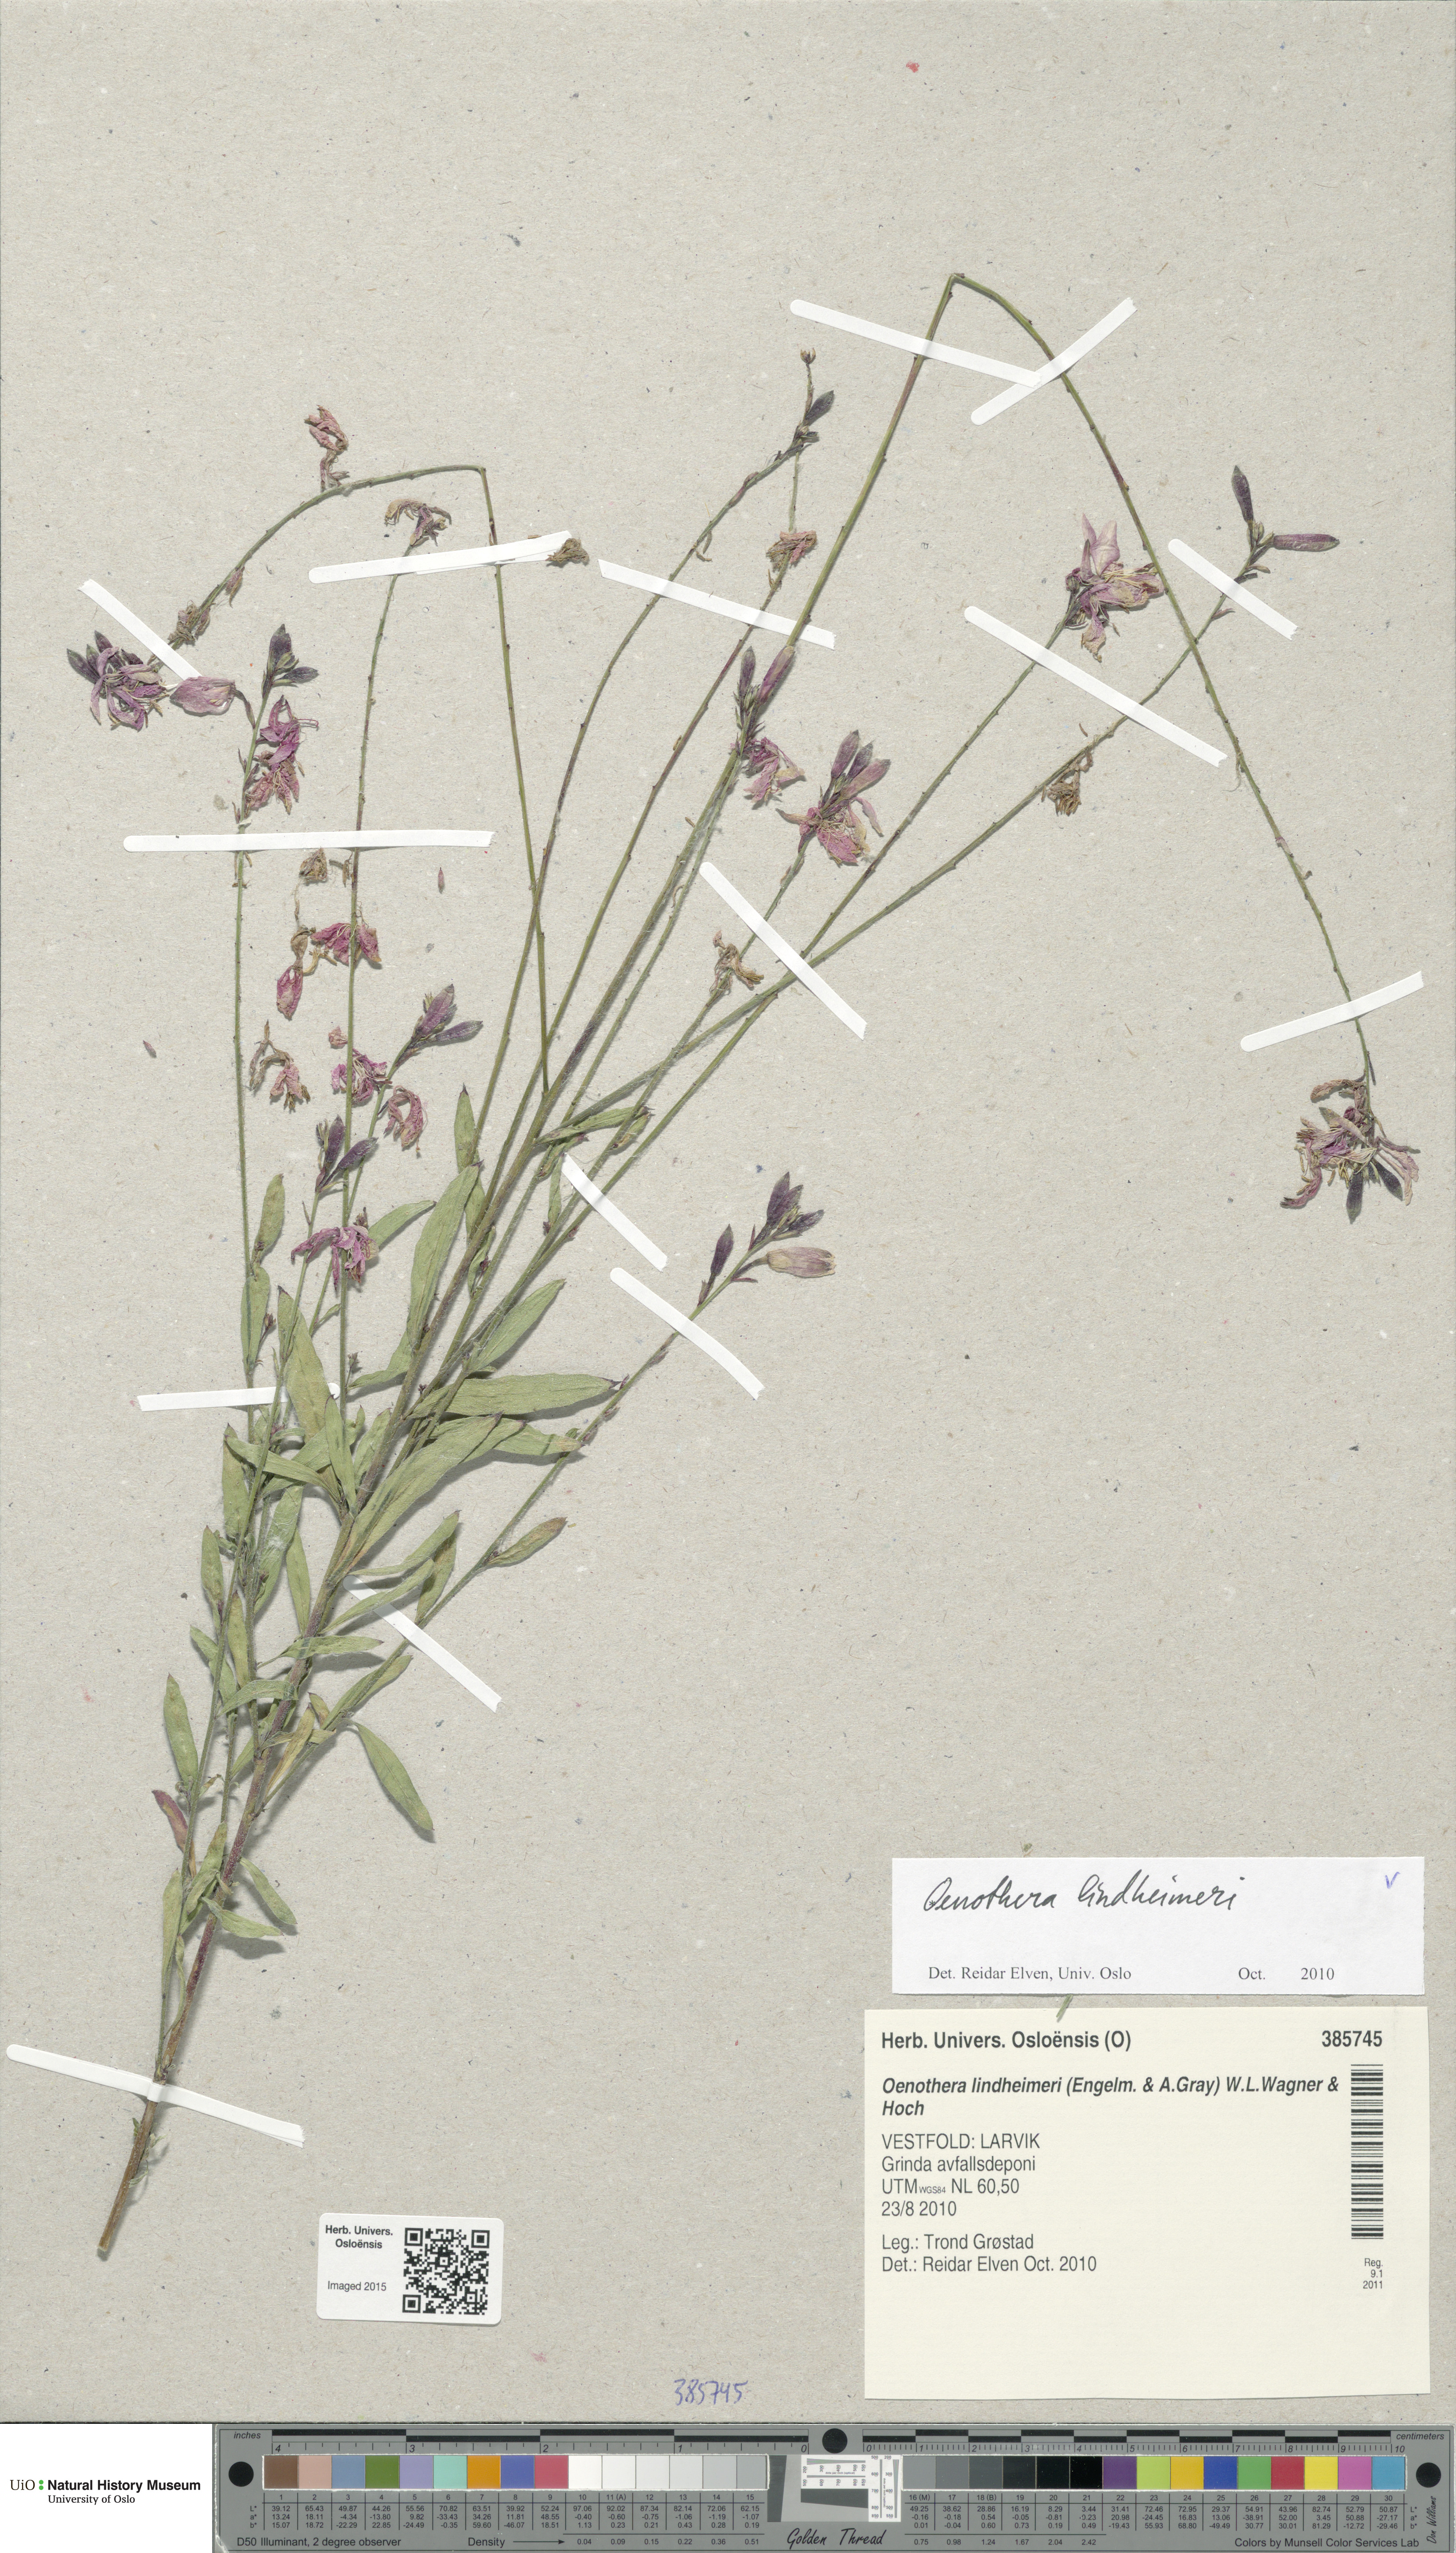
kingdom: Plantae
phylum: Tracheophyta
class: Magnoliopsida
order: Myrtales
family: Onagraceae
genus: Oenothera
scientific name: Oenothera lindheimeri
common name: Lindheimer's beeblossom
